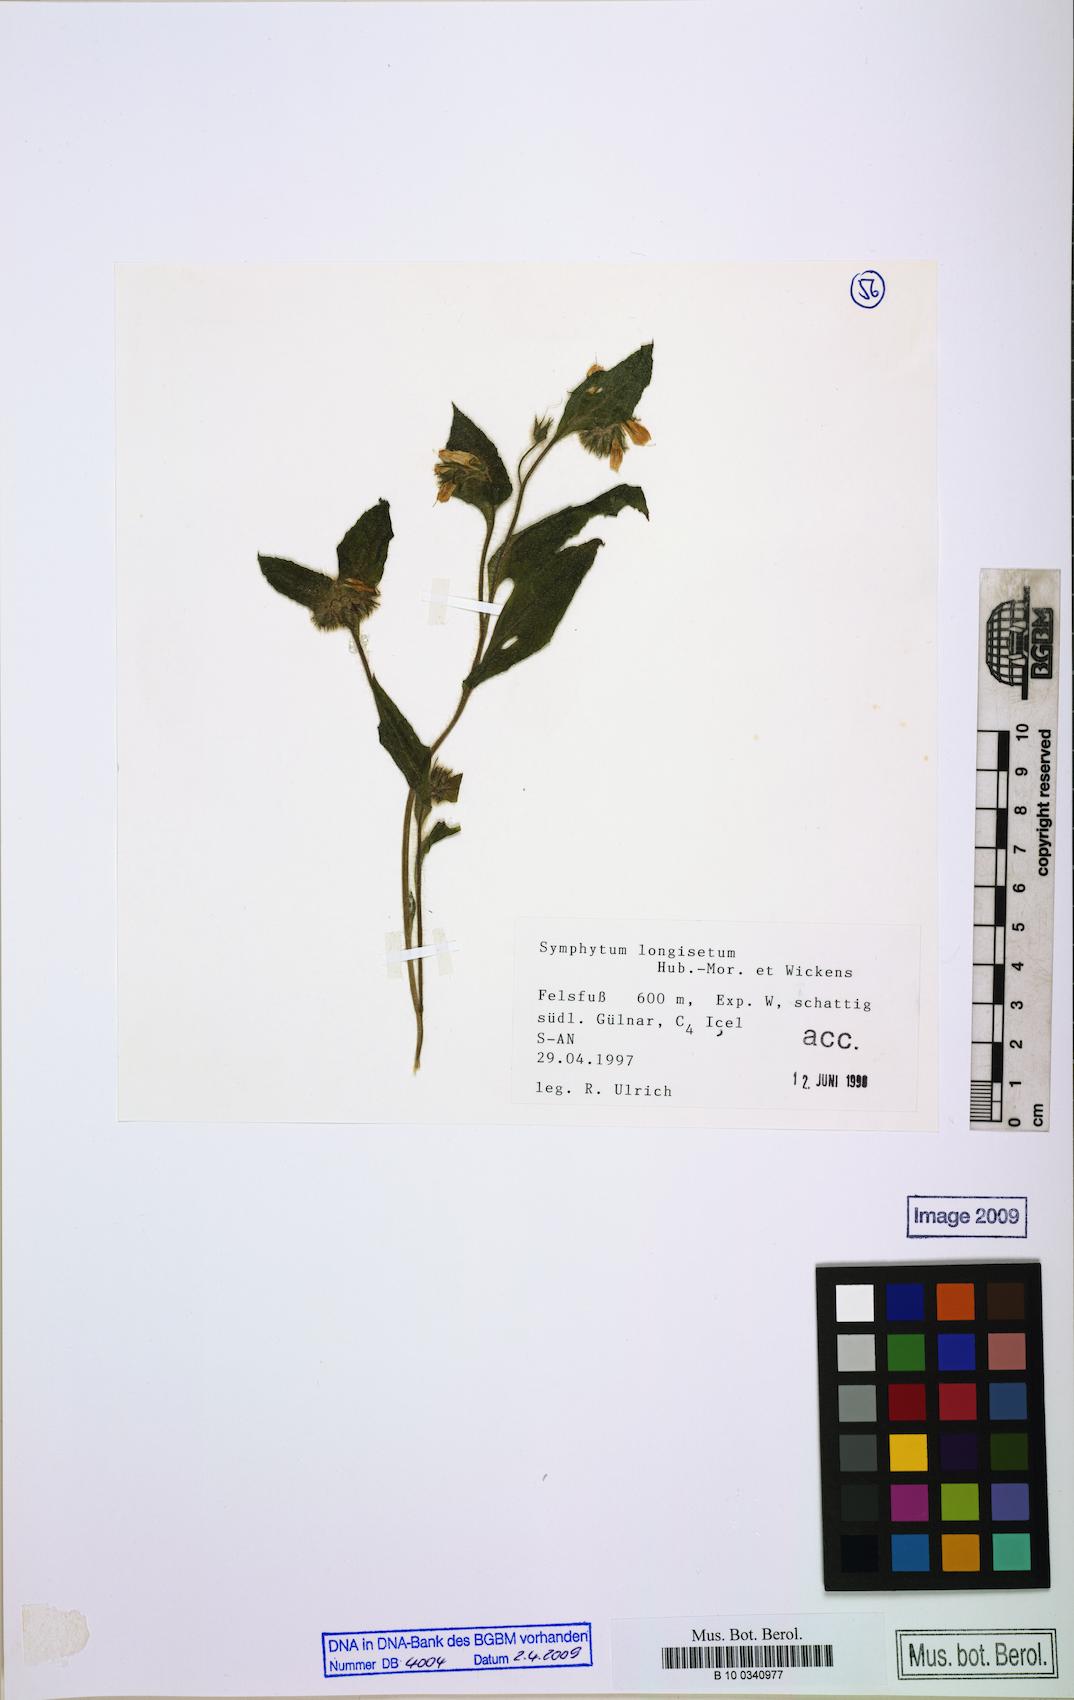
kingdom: Plantae
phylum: Tracheophyta
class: Magnoliopsida
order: Boraginales
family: Boraginaceae
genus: Symphytum
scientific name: Symphytum longisetum
